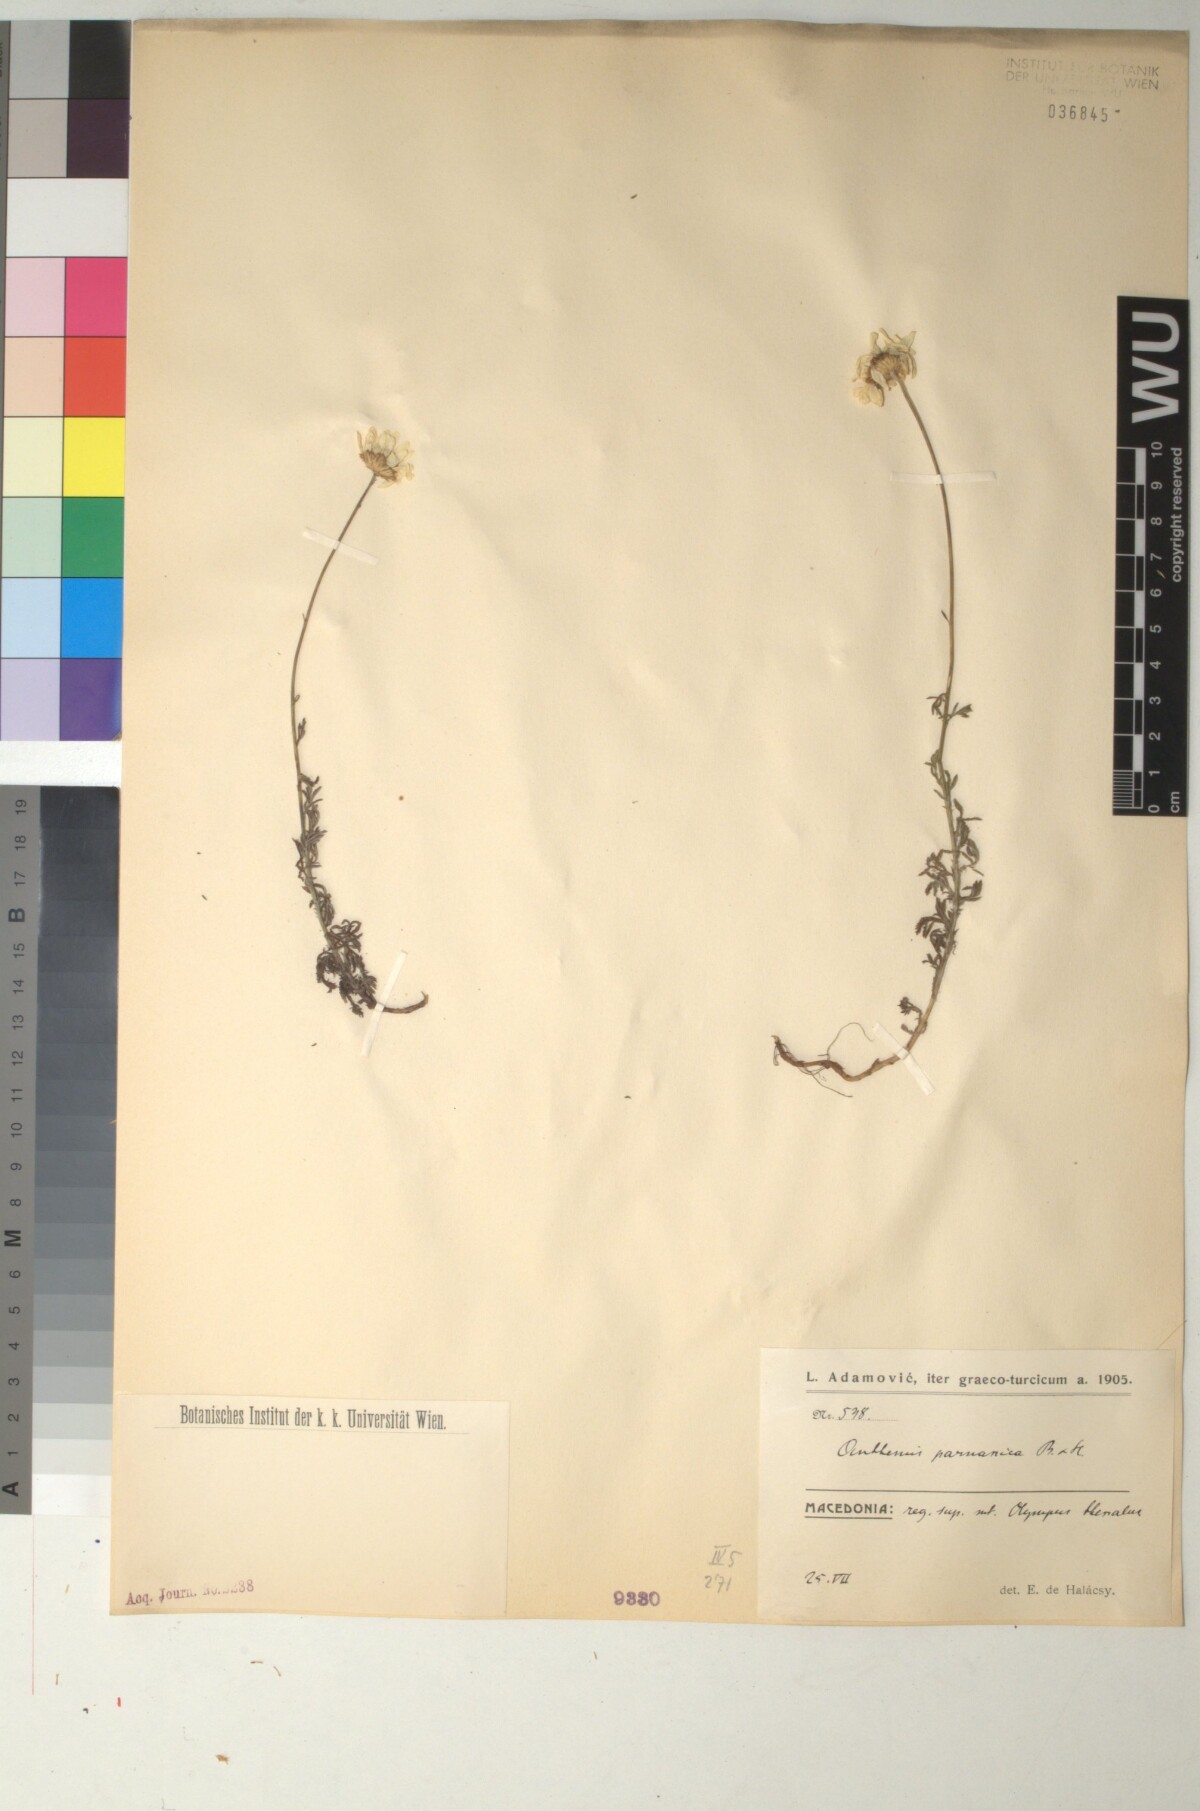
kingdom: Plantae
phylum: Tracheophyta
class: Magnoliopsida
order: Asterales
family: Asteraceae
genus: Cota
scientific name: Cota tinctoria
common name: Golden chamomile
